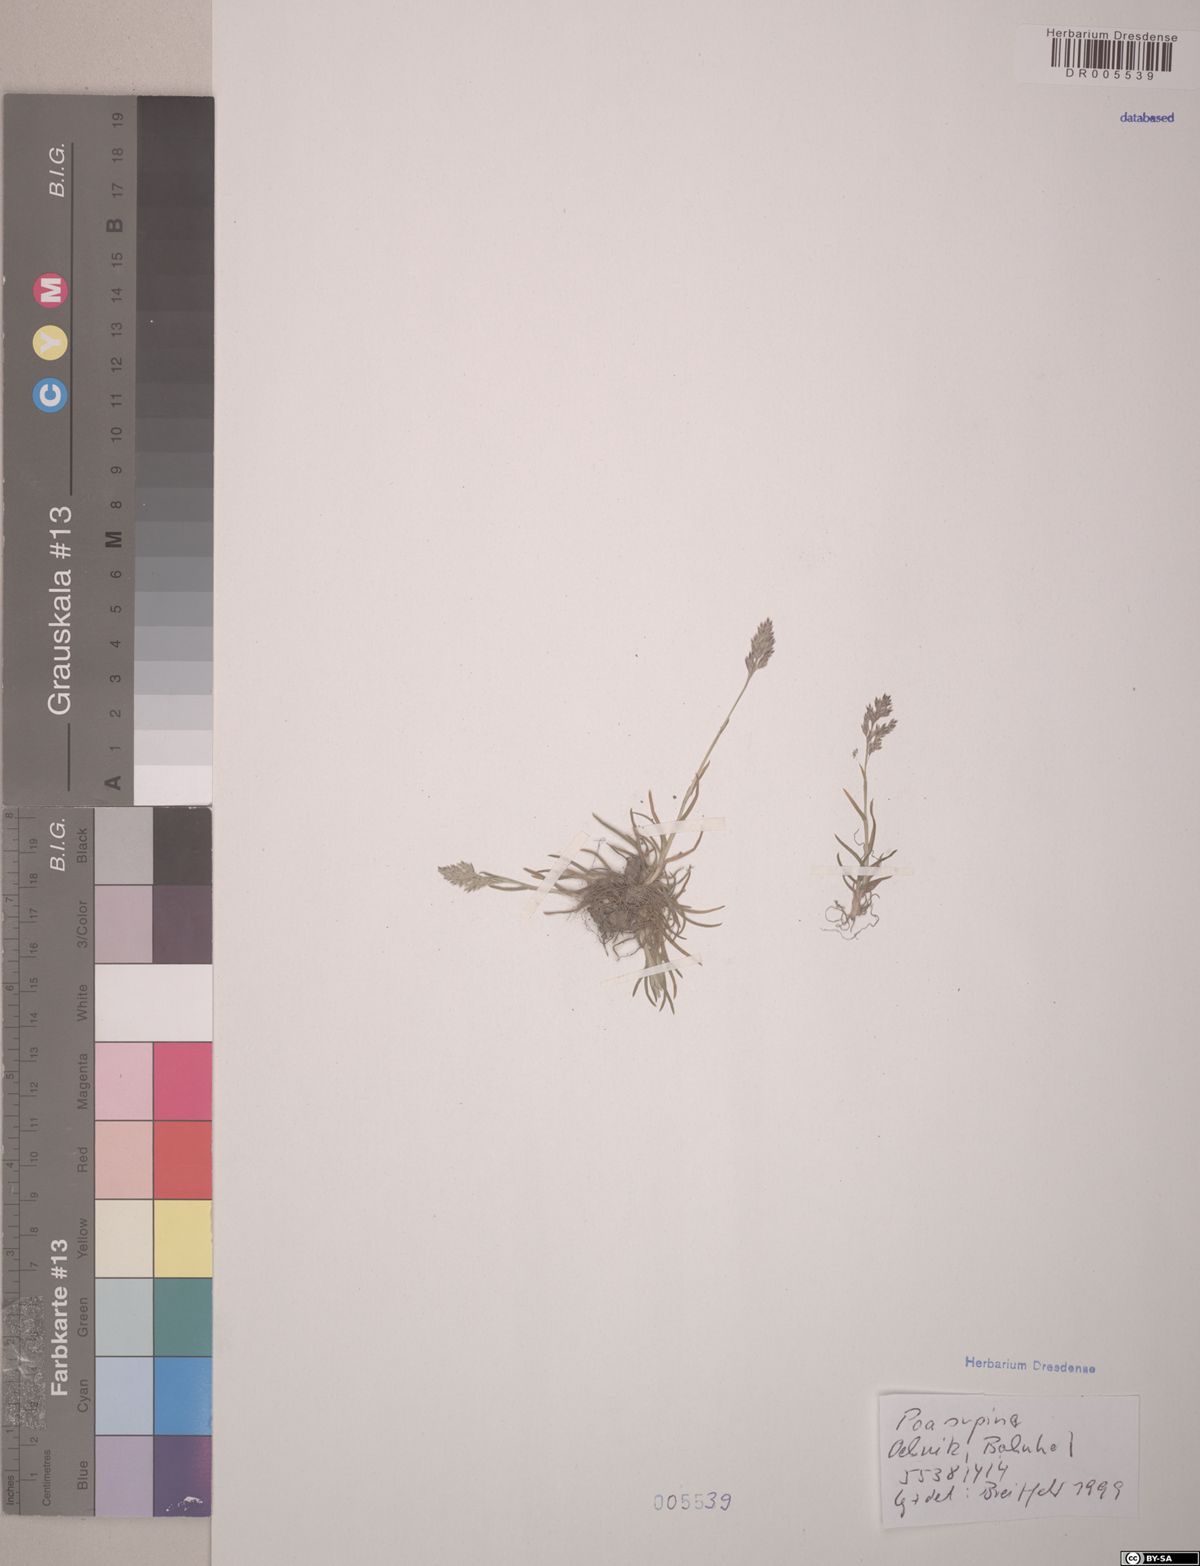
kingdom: Plantae
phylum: Tracheophyta
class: Liliopsida
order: Poales
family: Poaceae
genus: Poa
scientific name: Poa supina
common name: Supina bluegrass
